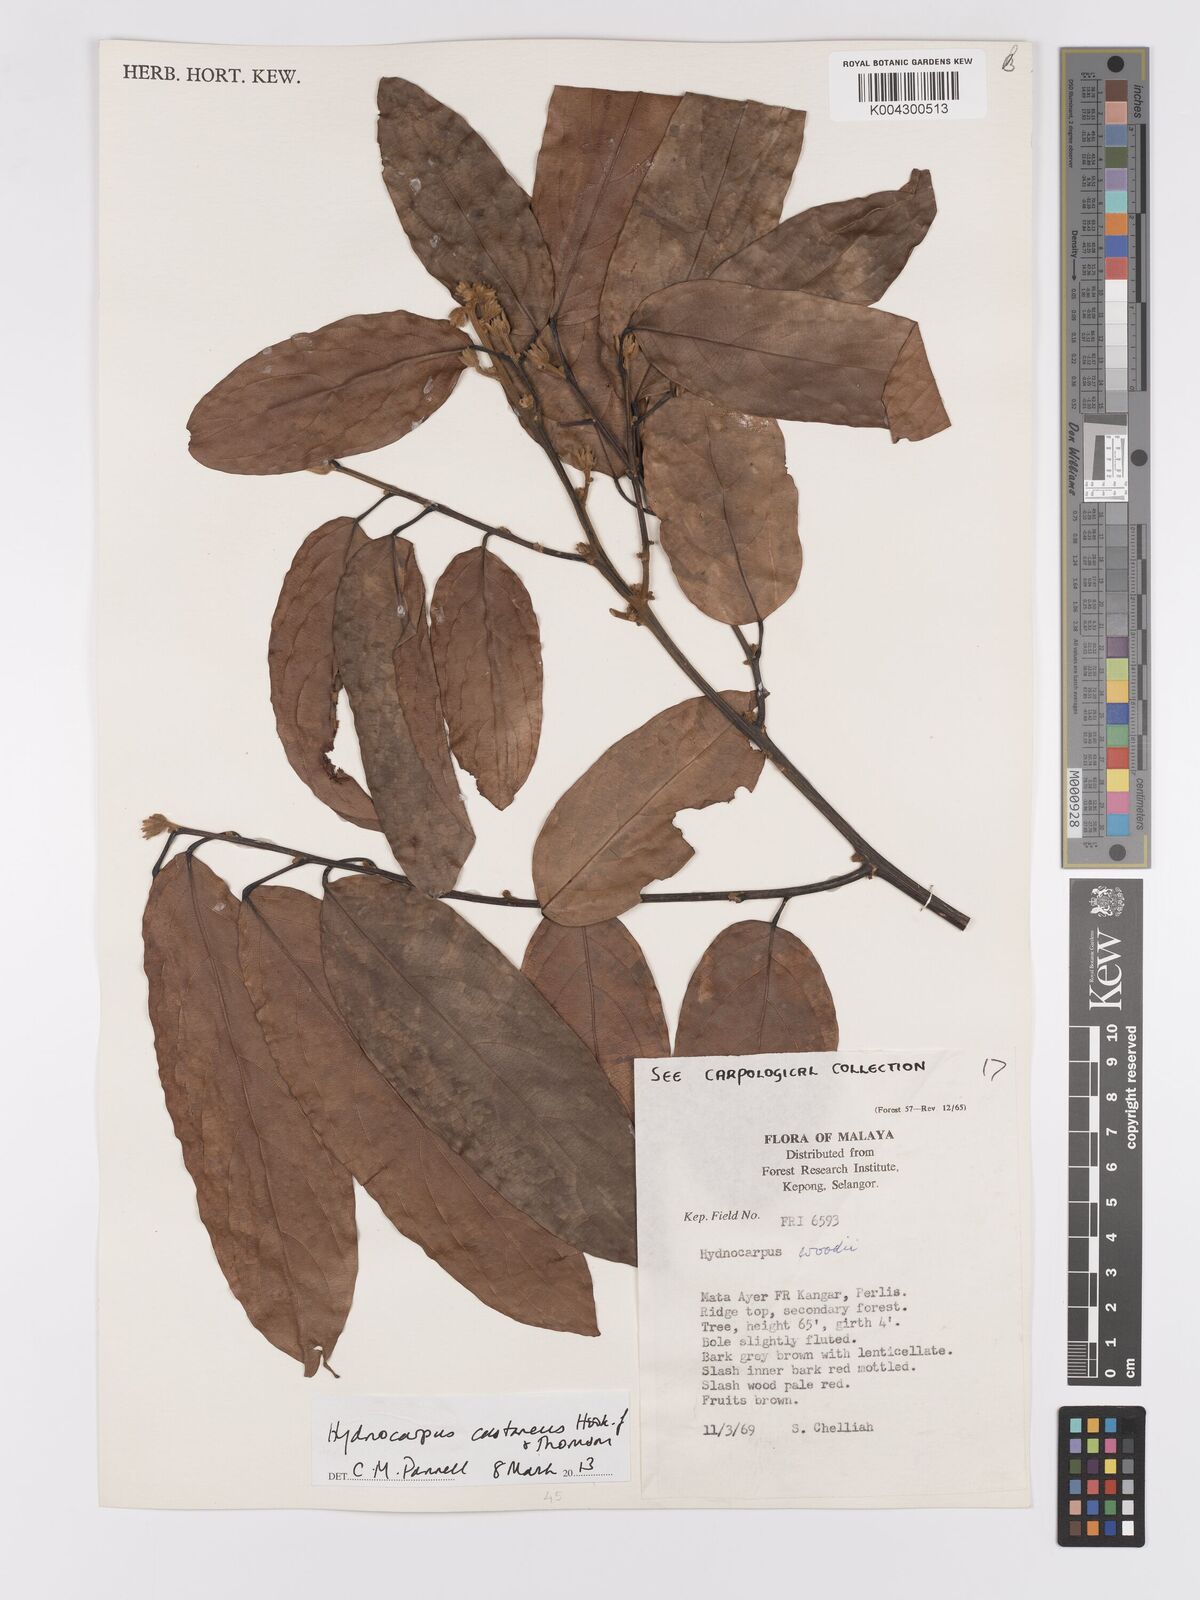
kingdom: Plantae
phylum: Tracheophyta
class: Magnoliopsida
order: Malpighiales
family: Achariaceae
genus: Hydnocarpus
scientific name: Hydnocarpus castaneus
